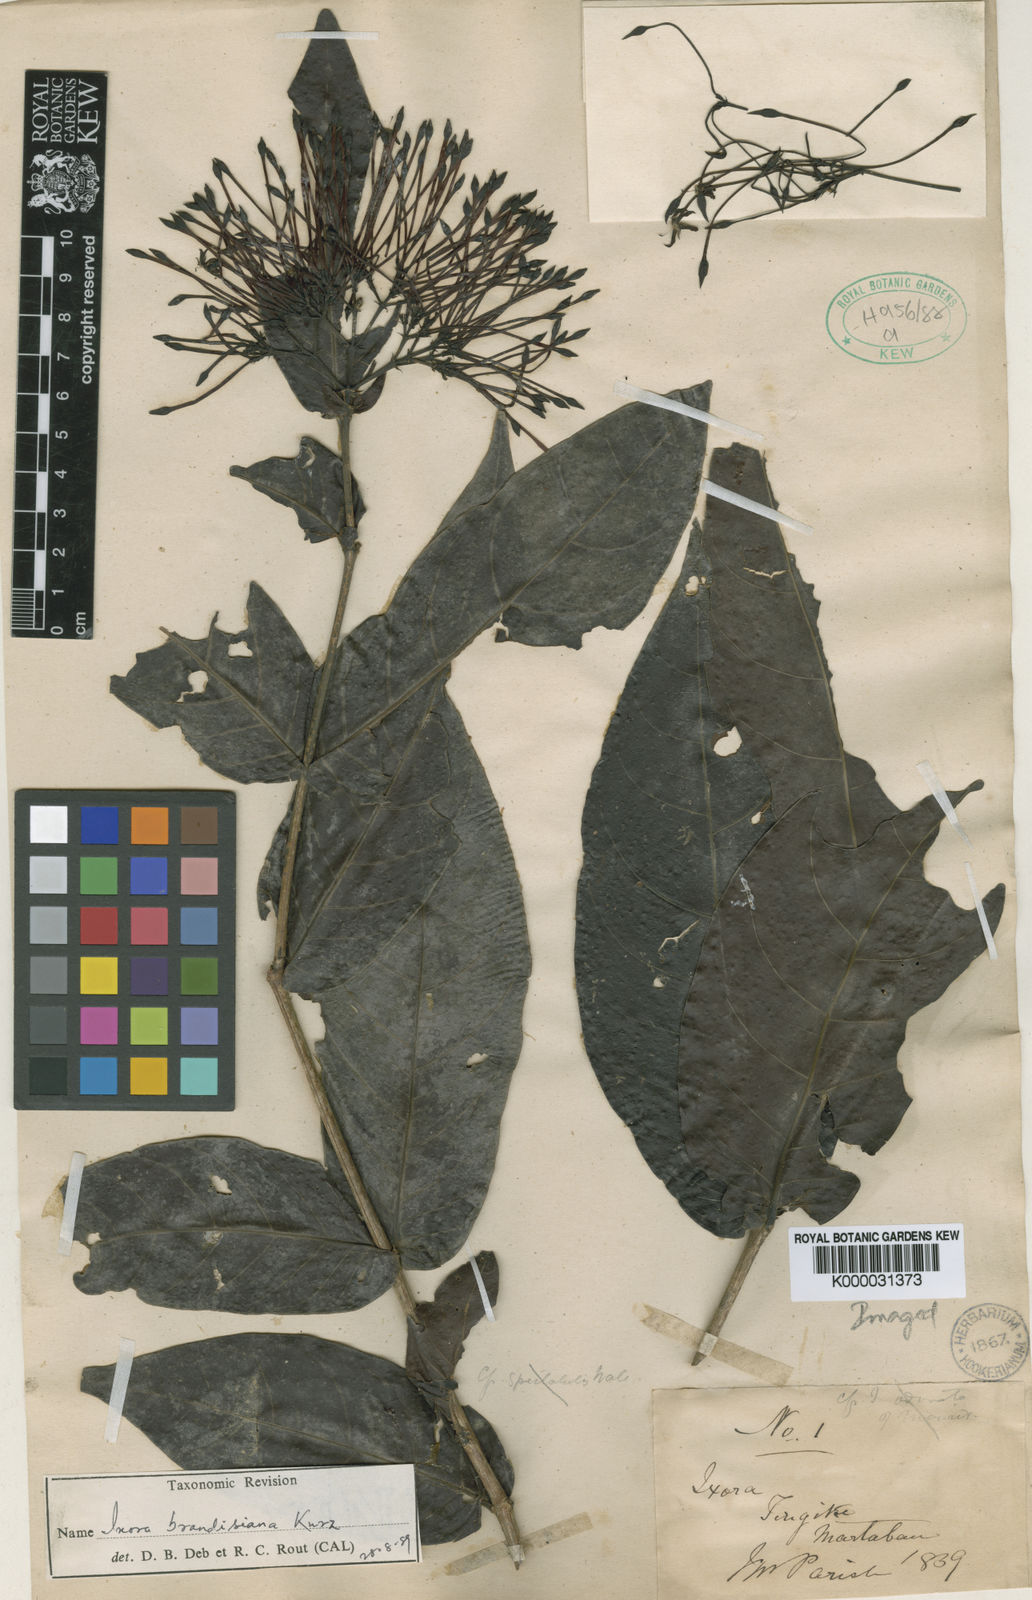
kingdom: Plantae
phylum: Tracheophyta
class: Magnoliopsida
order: Gentianales
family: Rubiaceae
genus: Ixora
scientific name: Ixora brandisiana
